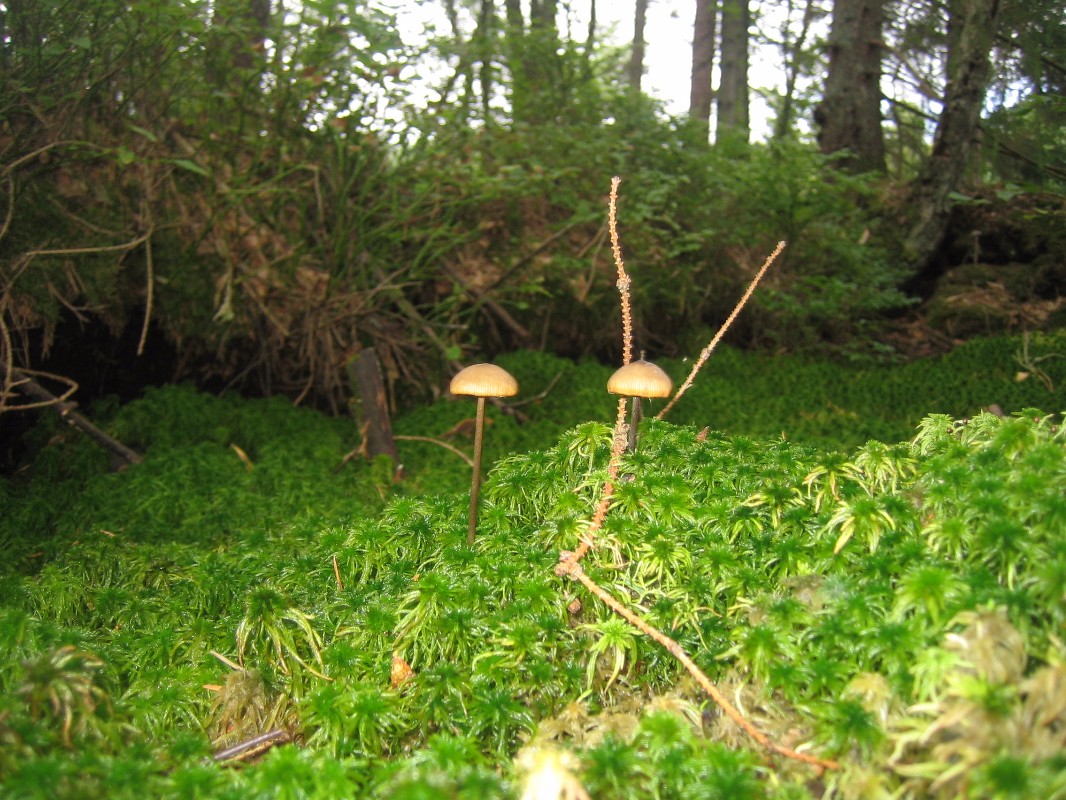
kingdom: Fungi
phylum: Basidiomycota
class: Agaricomycetes
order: Agaricales
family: Lyophyllaceae
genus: Sphagnurus
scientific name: Sphagnurus paluster
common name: tørvemos-gråblad
